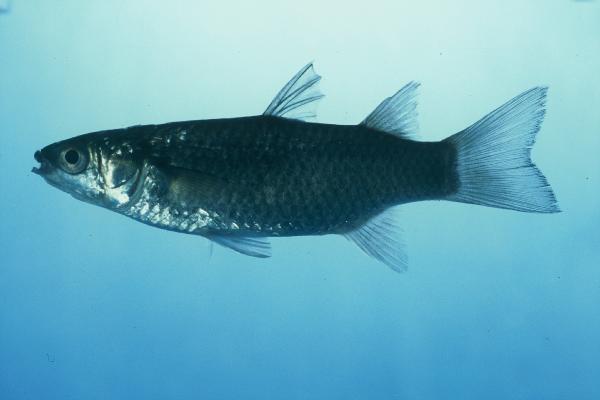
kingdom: Animalia
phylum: Chordata
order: Mugiliformes
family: Mugilidae
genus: Planiliza
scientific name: Planiliza melinopterus
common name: Otomebora mullet
